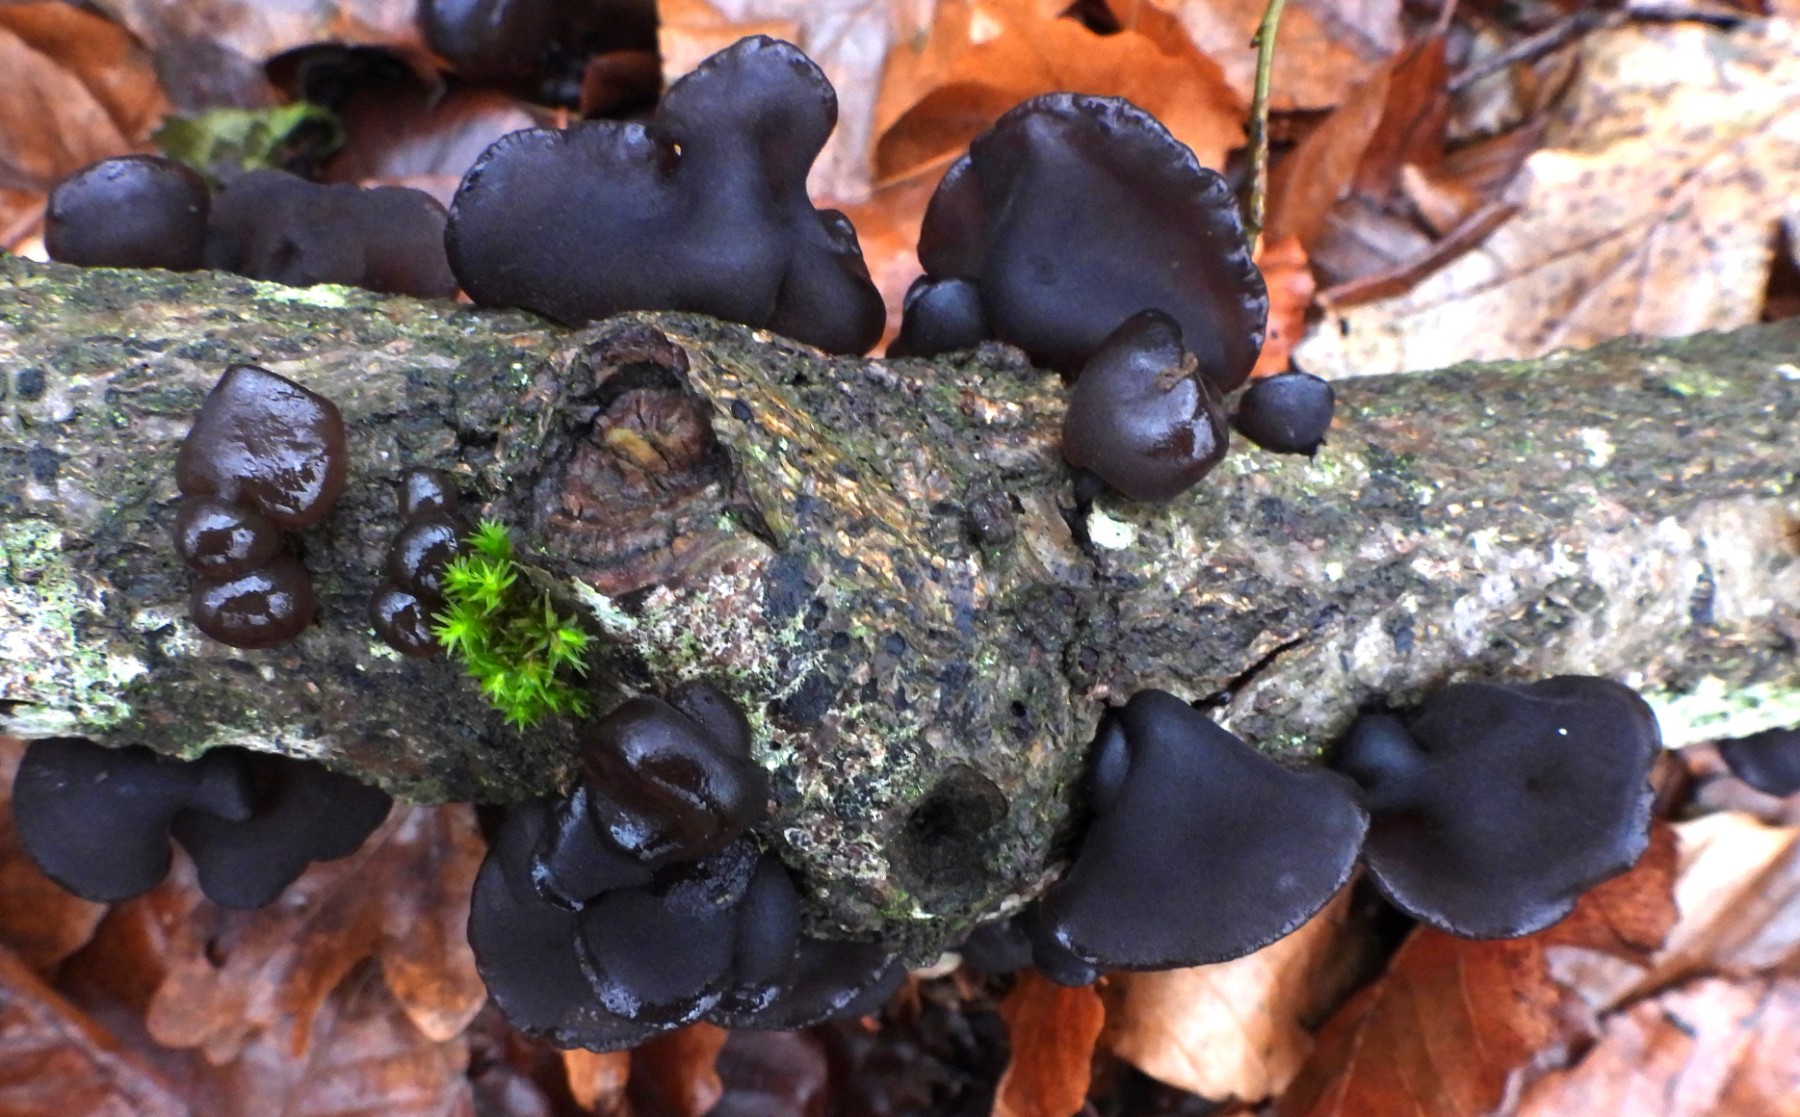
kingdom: Fungi
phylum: Basidiomycota
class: Agaricomycetes
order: Auriculariales
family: Auriculariaceae
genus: Exidia
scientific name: Exidia glandulosa
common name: ege-bævretop
